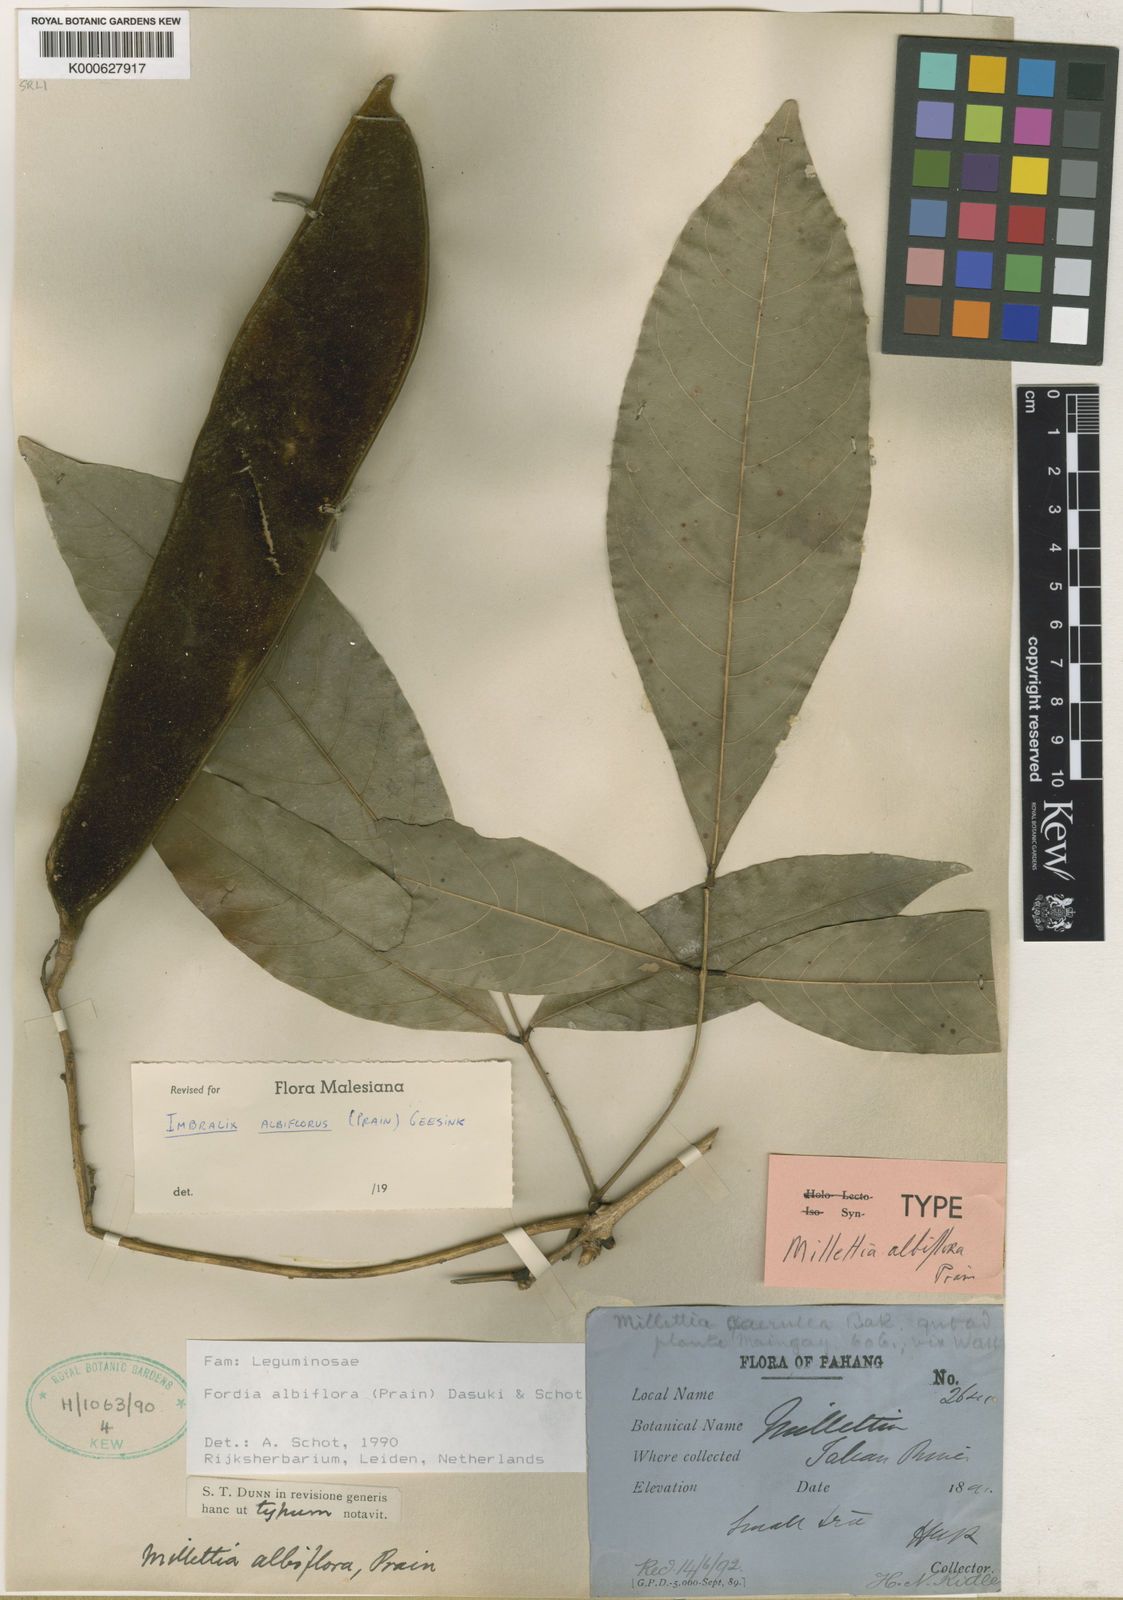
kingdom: Plantae
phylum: Tracheophyta
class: Magnoliopsida
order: Fabales
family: Fabaceae
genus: Imbralyx
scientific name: Imbralyx albiflorus
